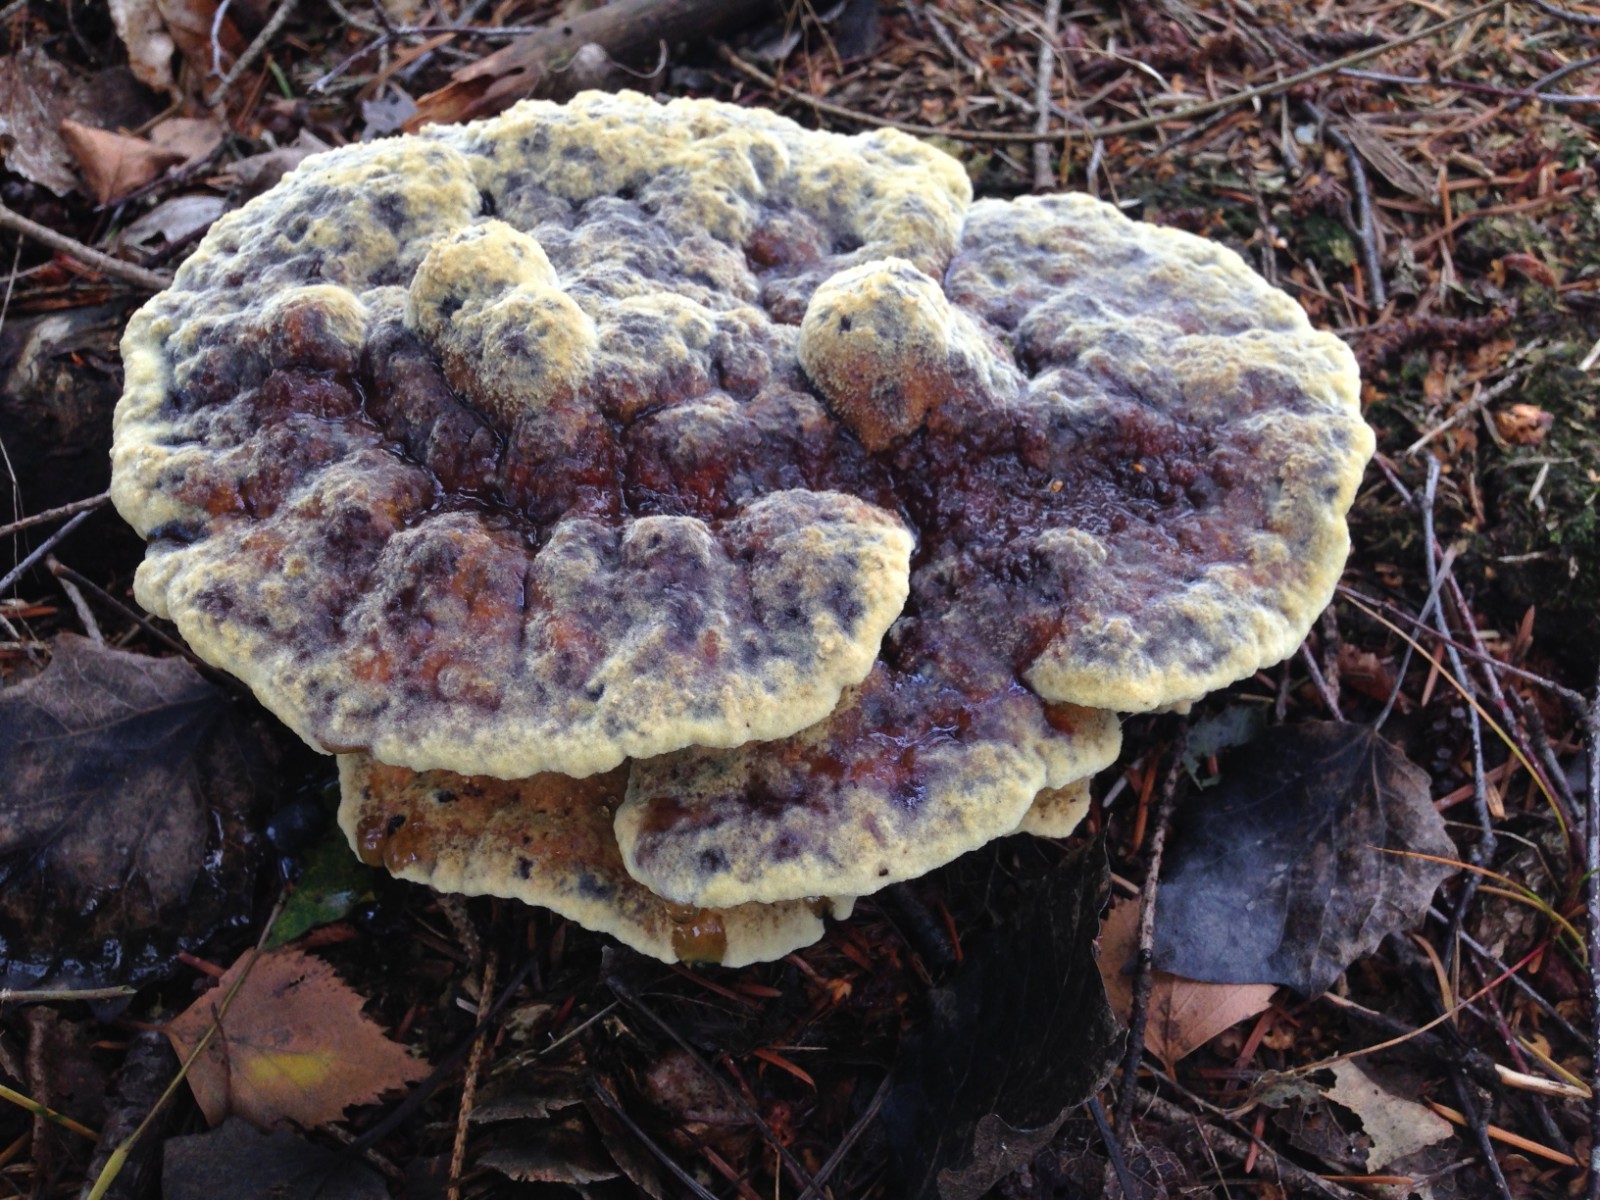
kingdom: Fungi
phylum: Basidiomycota
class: Agaricomycetes
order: Polyporales
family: Laetiporaceae
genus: Phaeolus
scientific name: Phaeolus schweinitzii
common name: brunporesvamp
